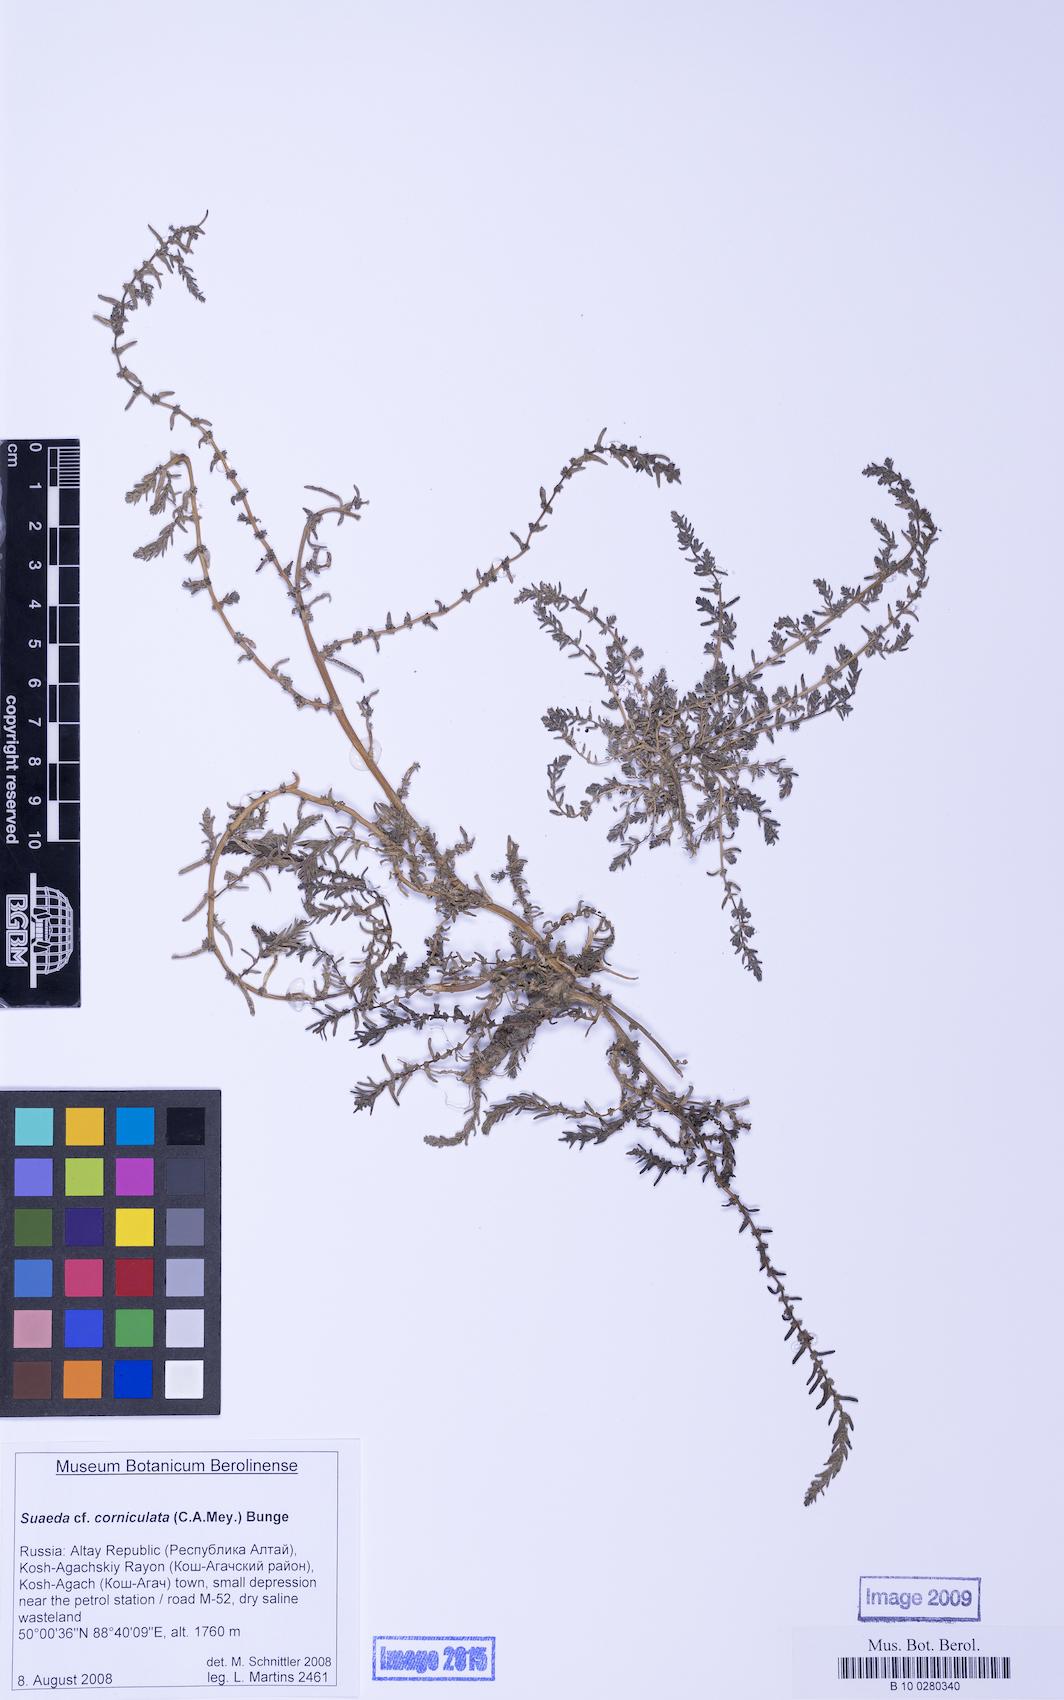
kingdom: Plantae
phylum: Tracheophyta
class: Magnoliopsida
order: Caryophyllales
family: Amaranthaceae
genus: Suaeda
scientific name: Suaeda corniculata
